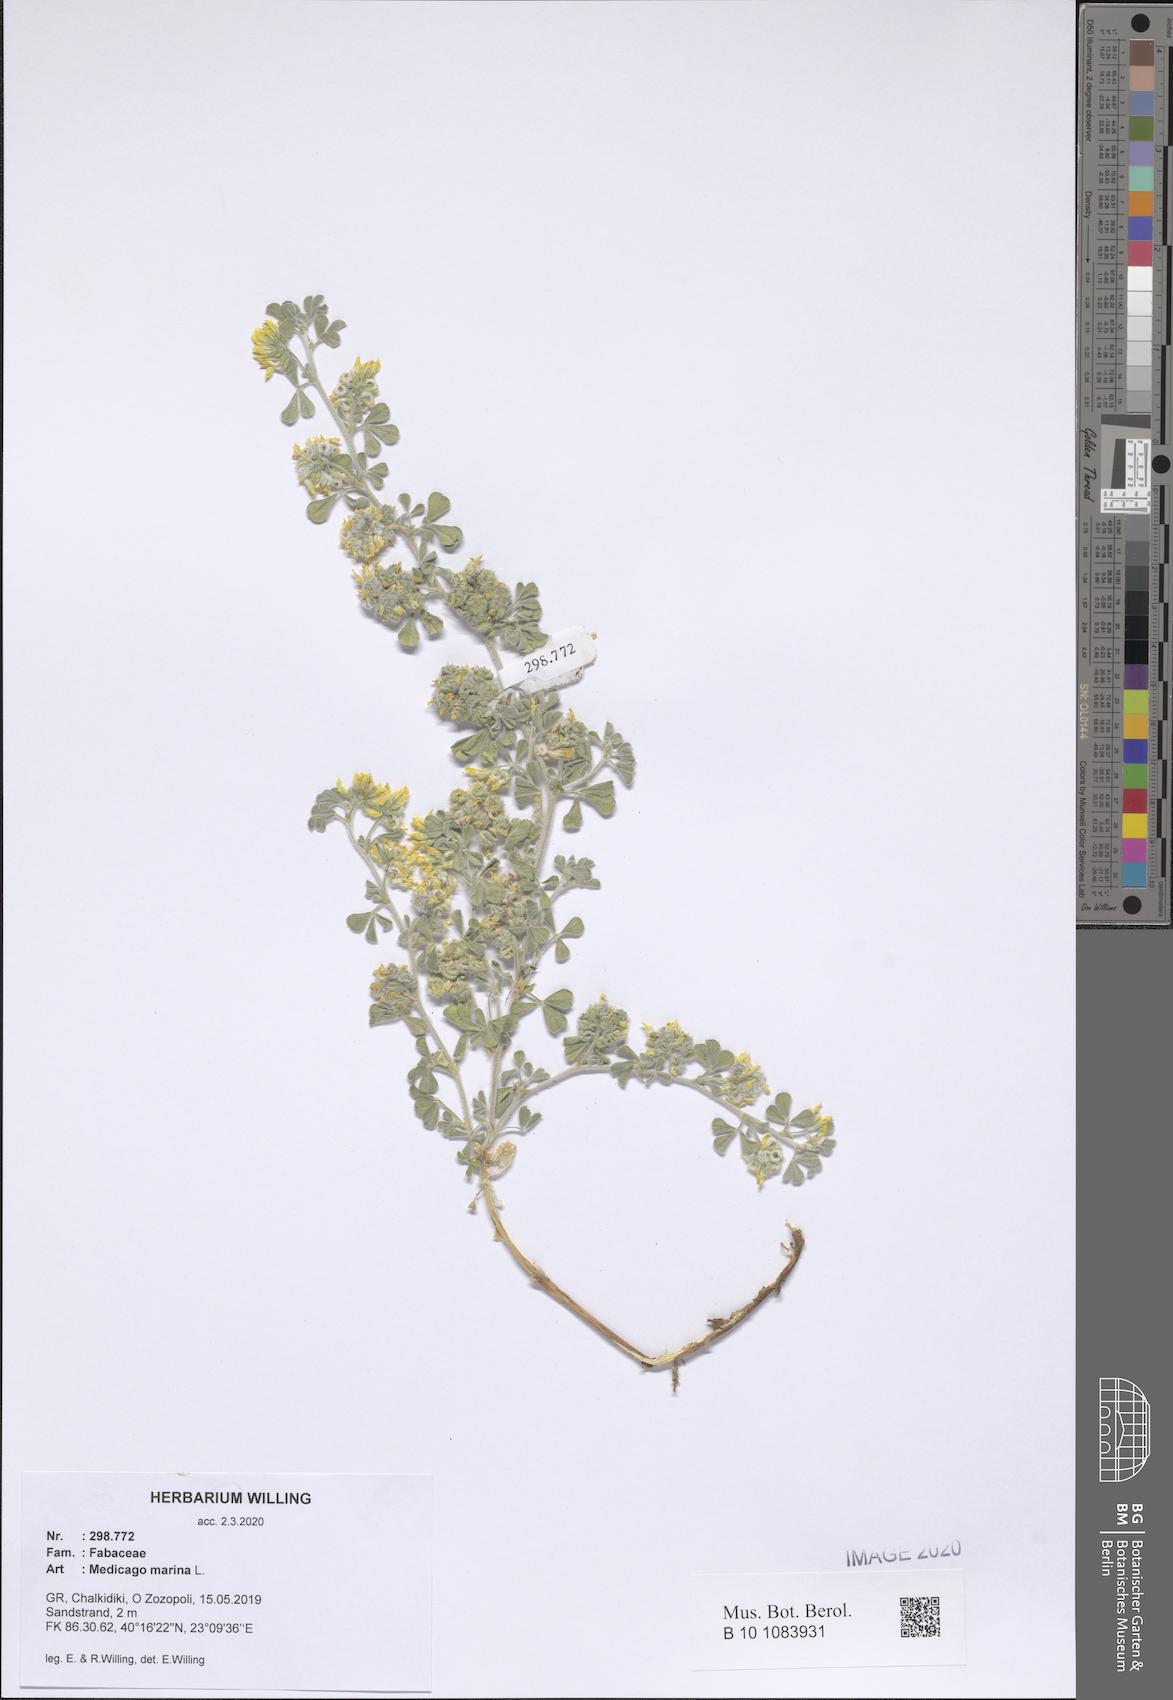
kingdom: Plantae
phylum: Tracheophyta
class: Magnoliopsida
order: Fabales
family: Fabaceae
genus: Medicago
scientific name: Medicago marina
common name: Sea medick
